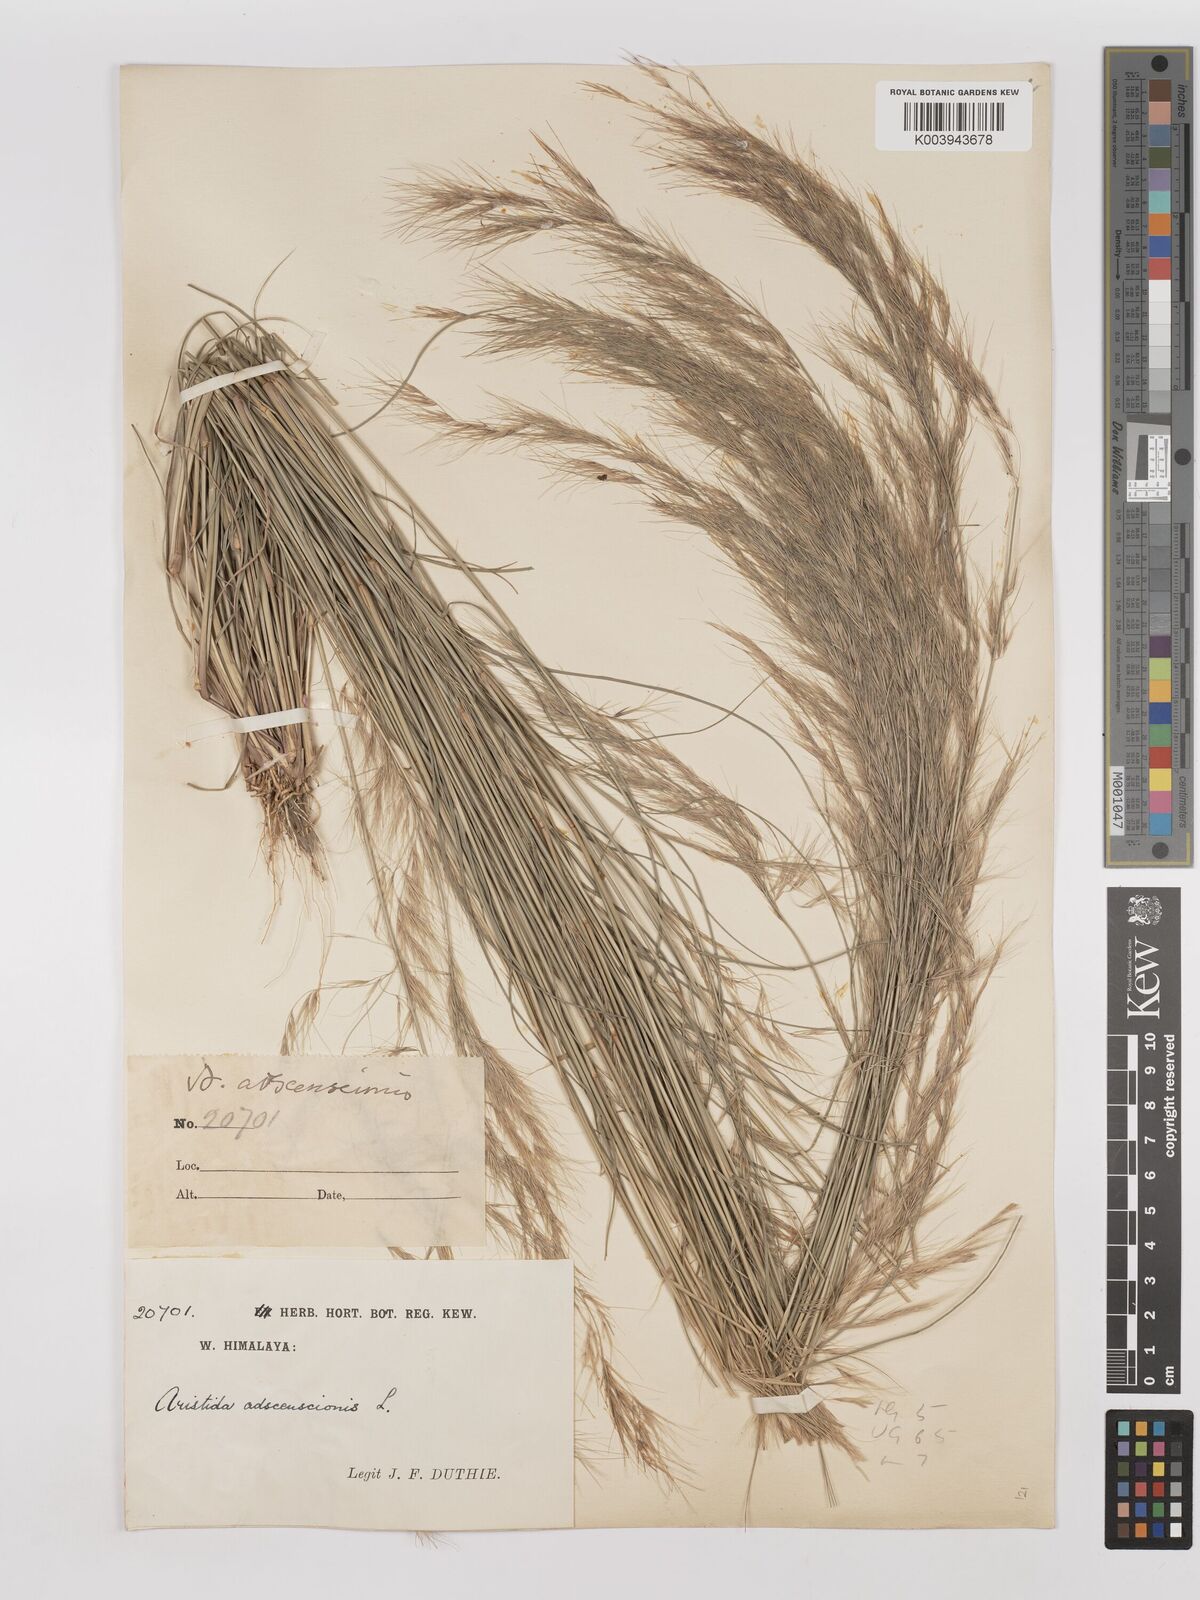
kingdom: Plantae
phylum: Tracheophyta
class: Liliopsida
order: Poales
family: Poaceae
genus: Aristida
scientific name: Aristida adscensionis
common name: Sixweeks threeawn
